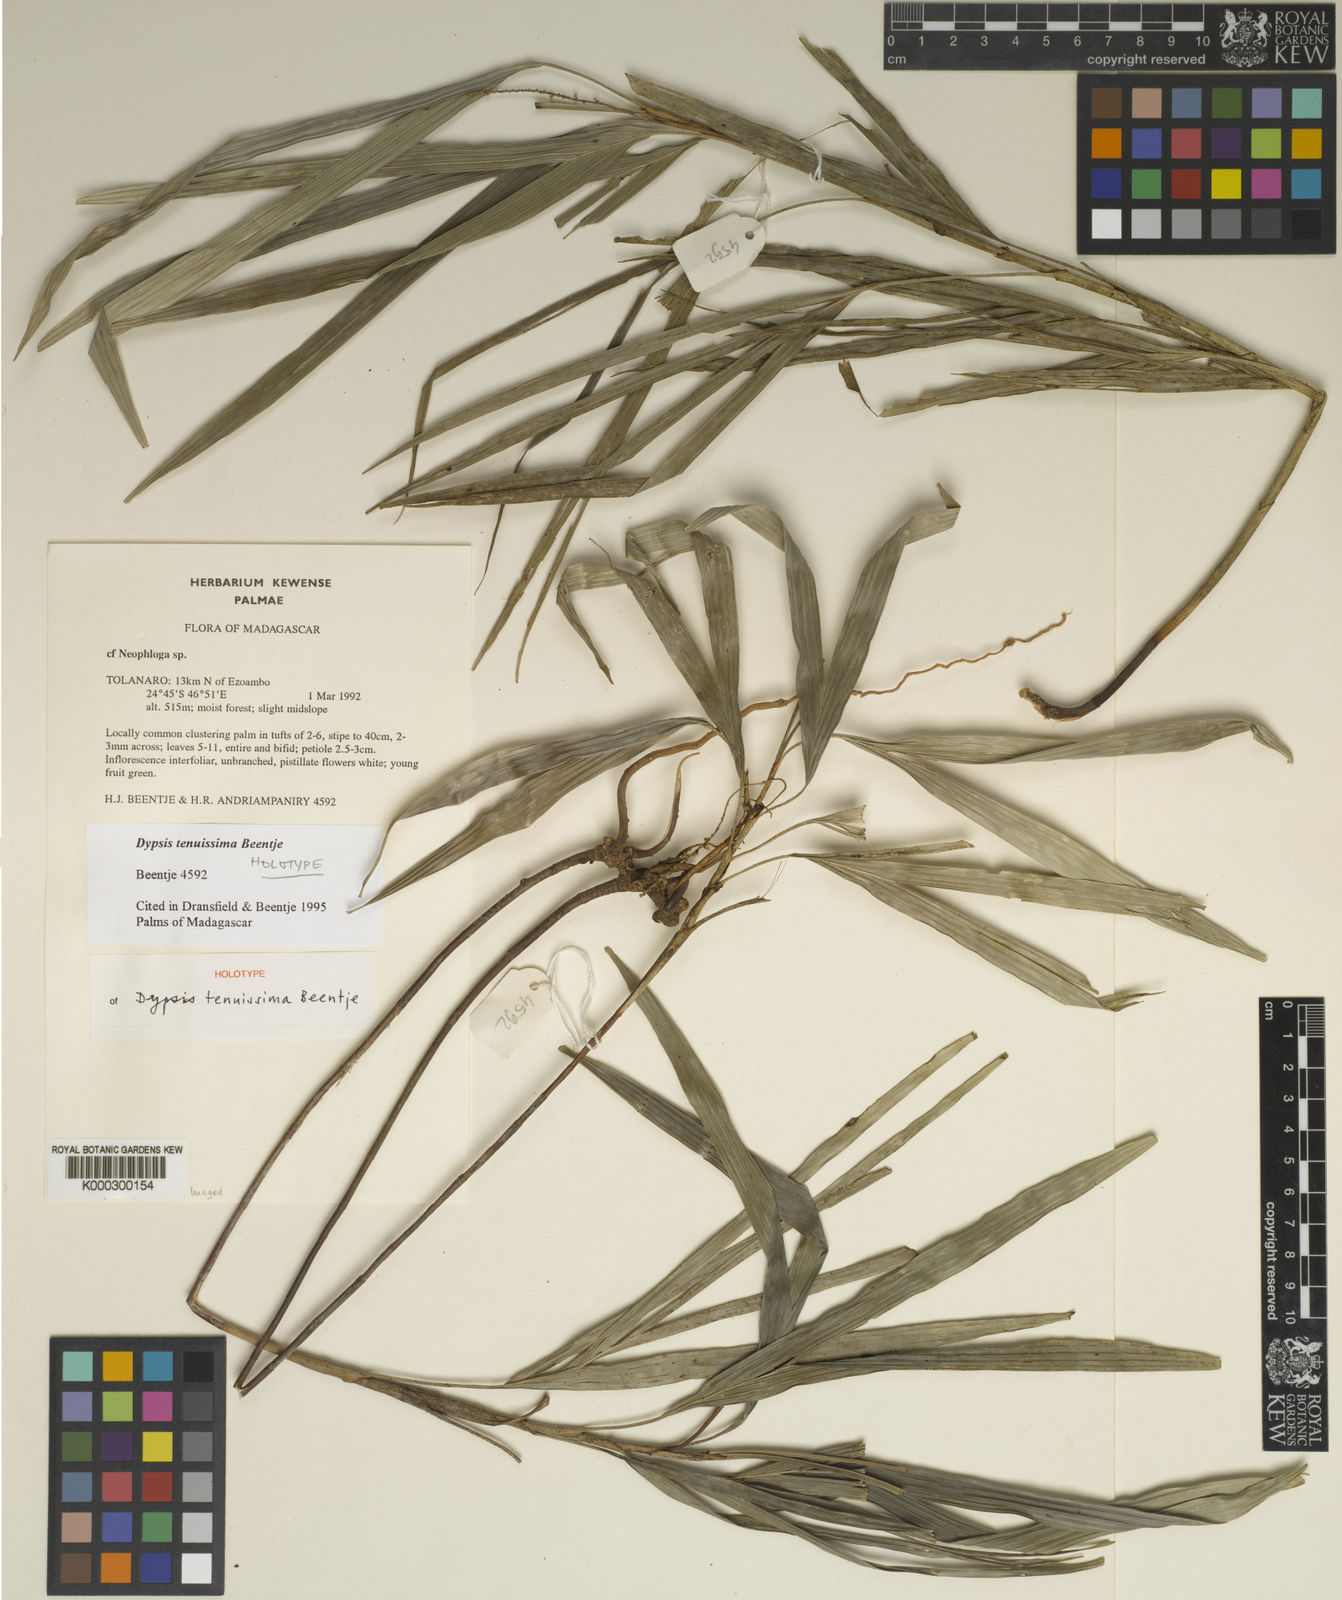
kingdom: Plantae
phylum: Tracheophyta
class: Liliopsida
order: Arecales
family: Arecaceae
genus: Dypsis
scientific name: Dypsis tenuissima
